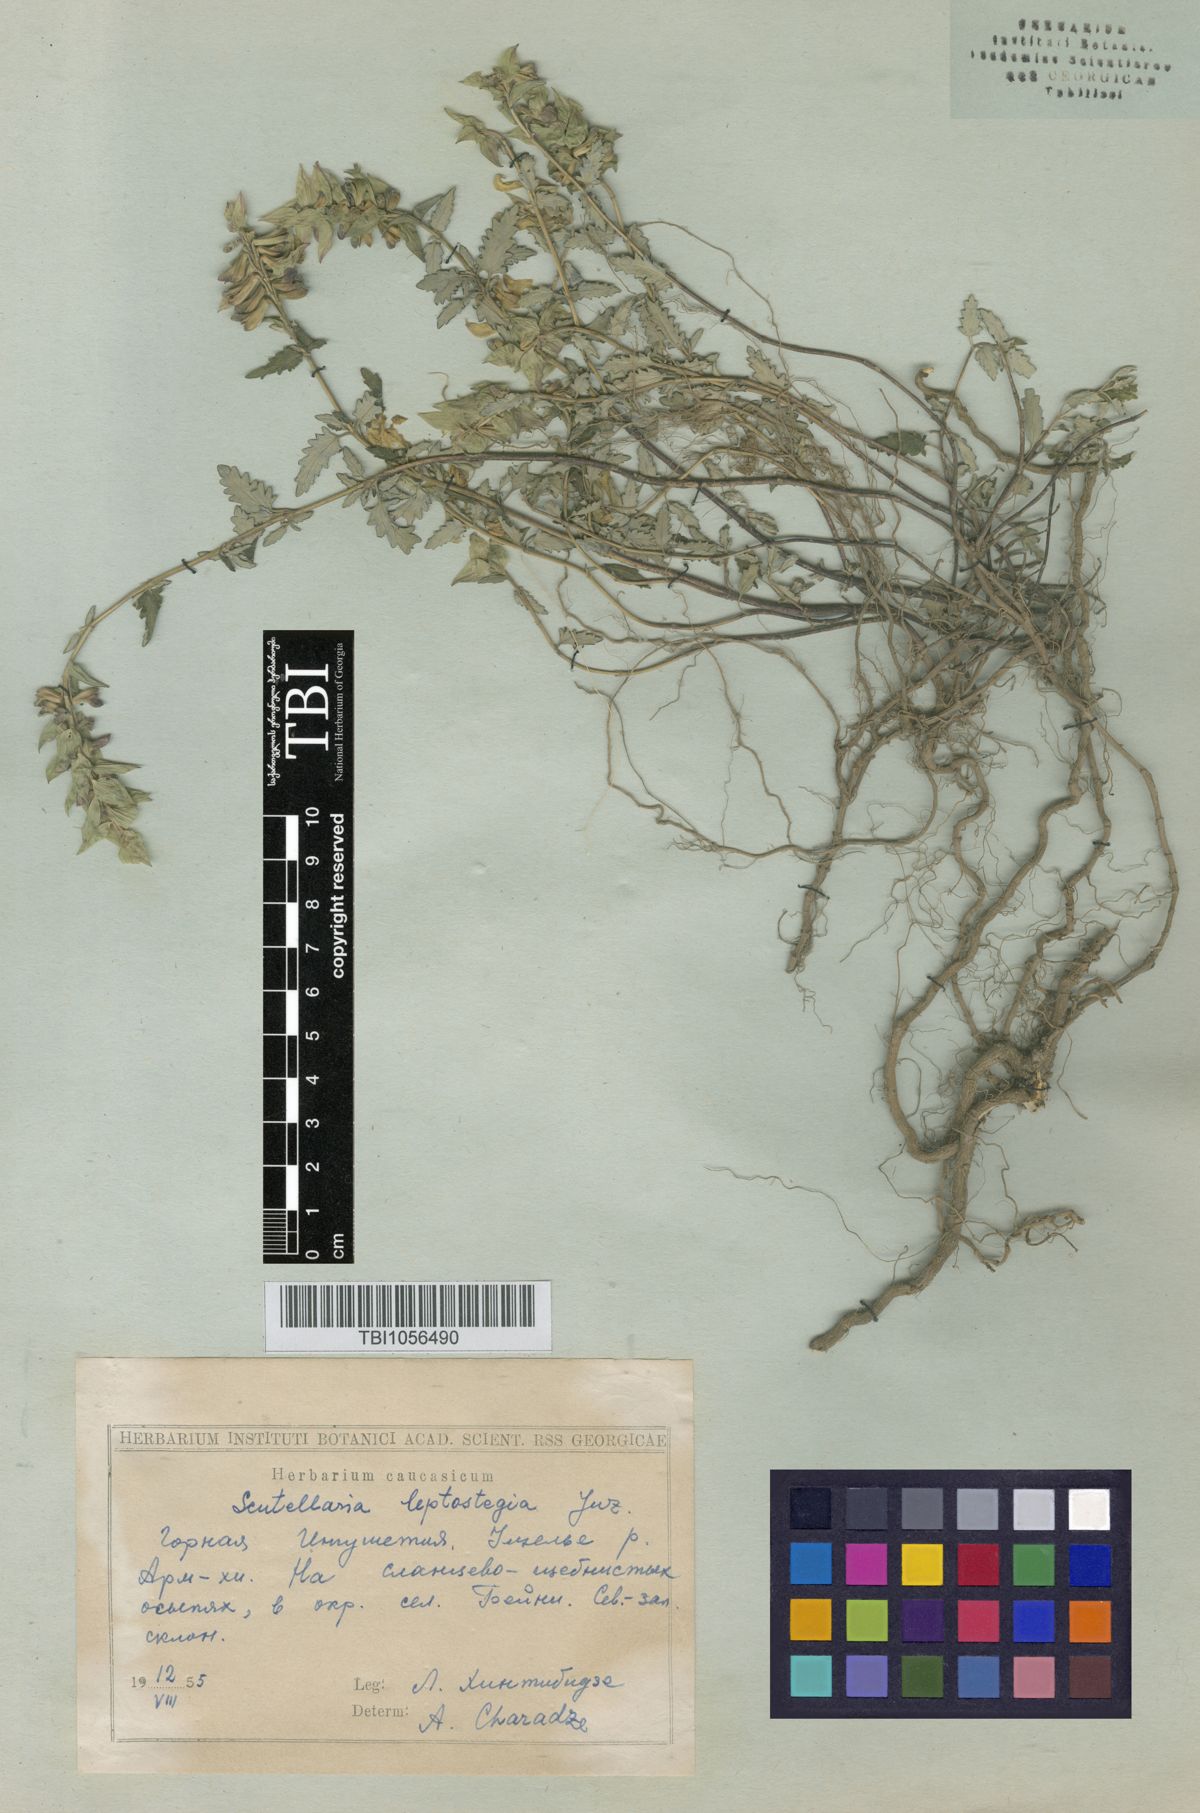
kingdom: Plantae
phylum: Tracheophyta
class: Magnoliopsida
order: Lamiales
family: Lamiaceae
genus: Scutellaria
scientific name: Scutellaria leptostegia
